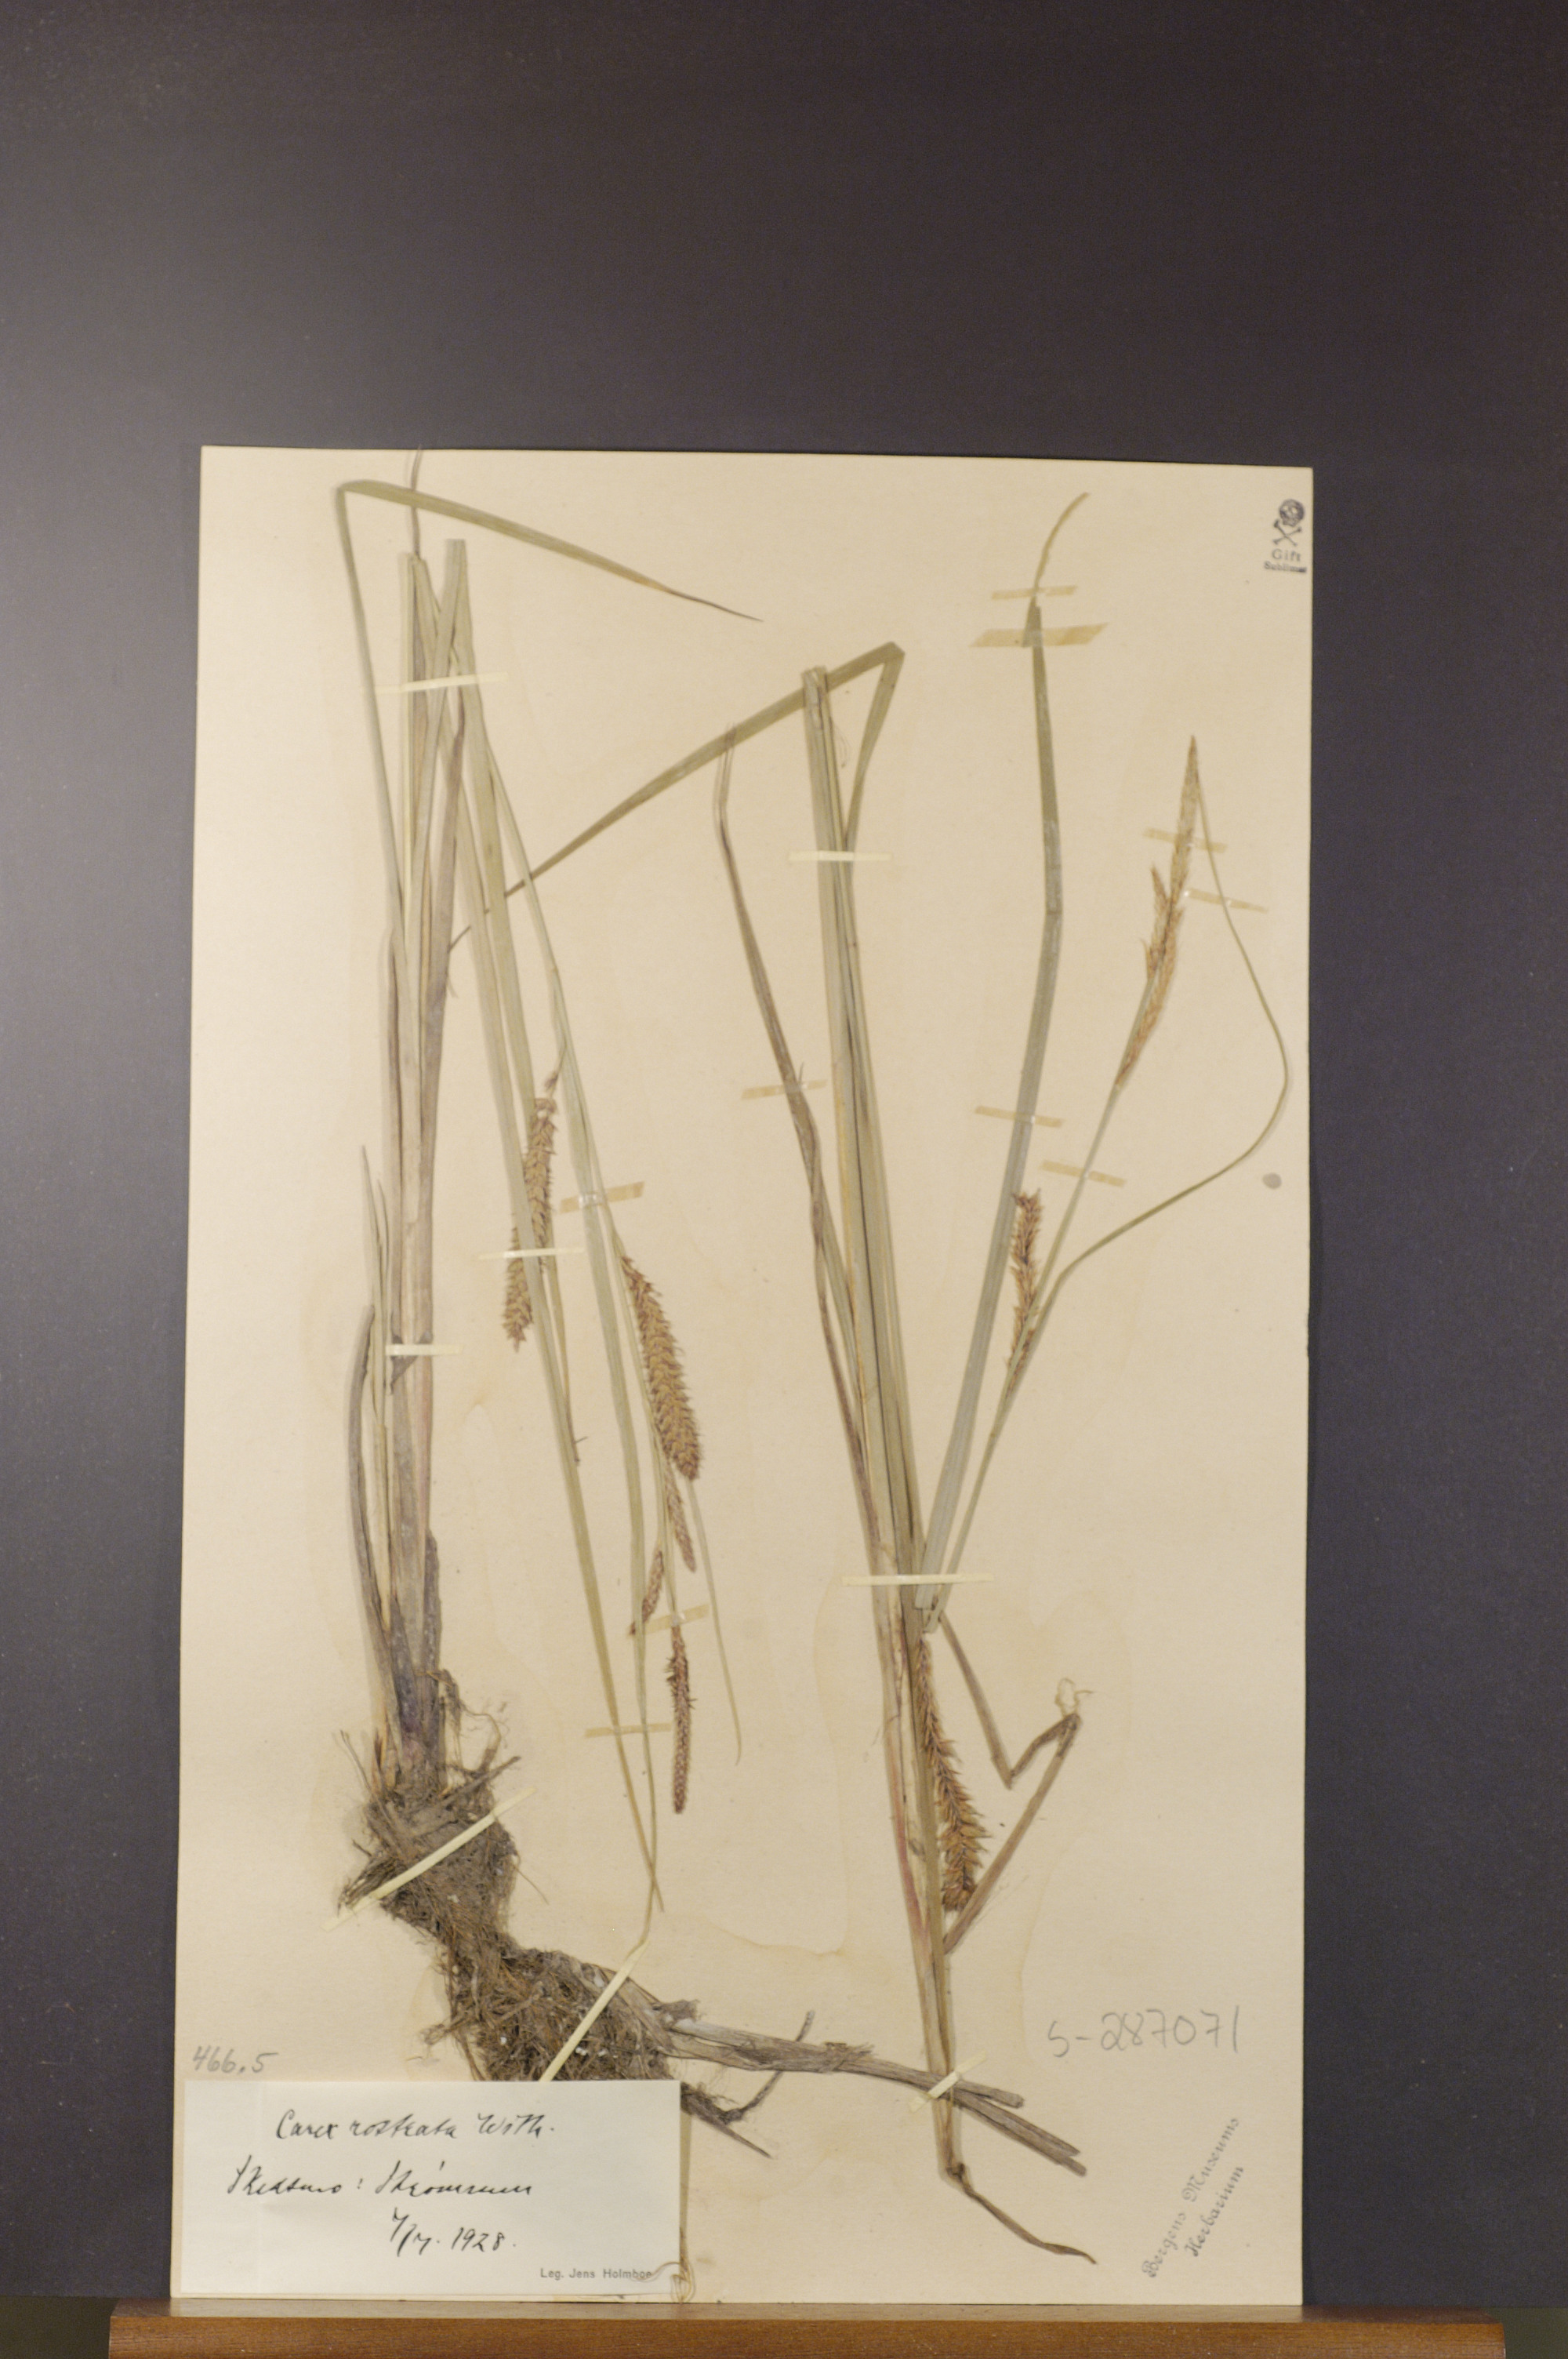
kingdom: Plantae
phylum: Tracheophyta
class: Liliopsida
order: Poales
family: Cyperaceae
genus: Carex
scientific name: Carex rostrata
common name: Bottle sedge
